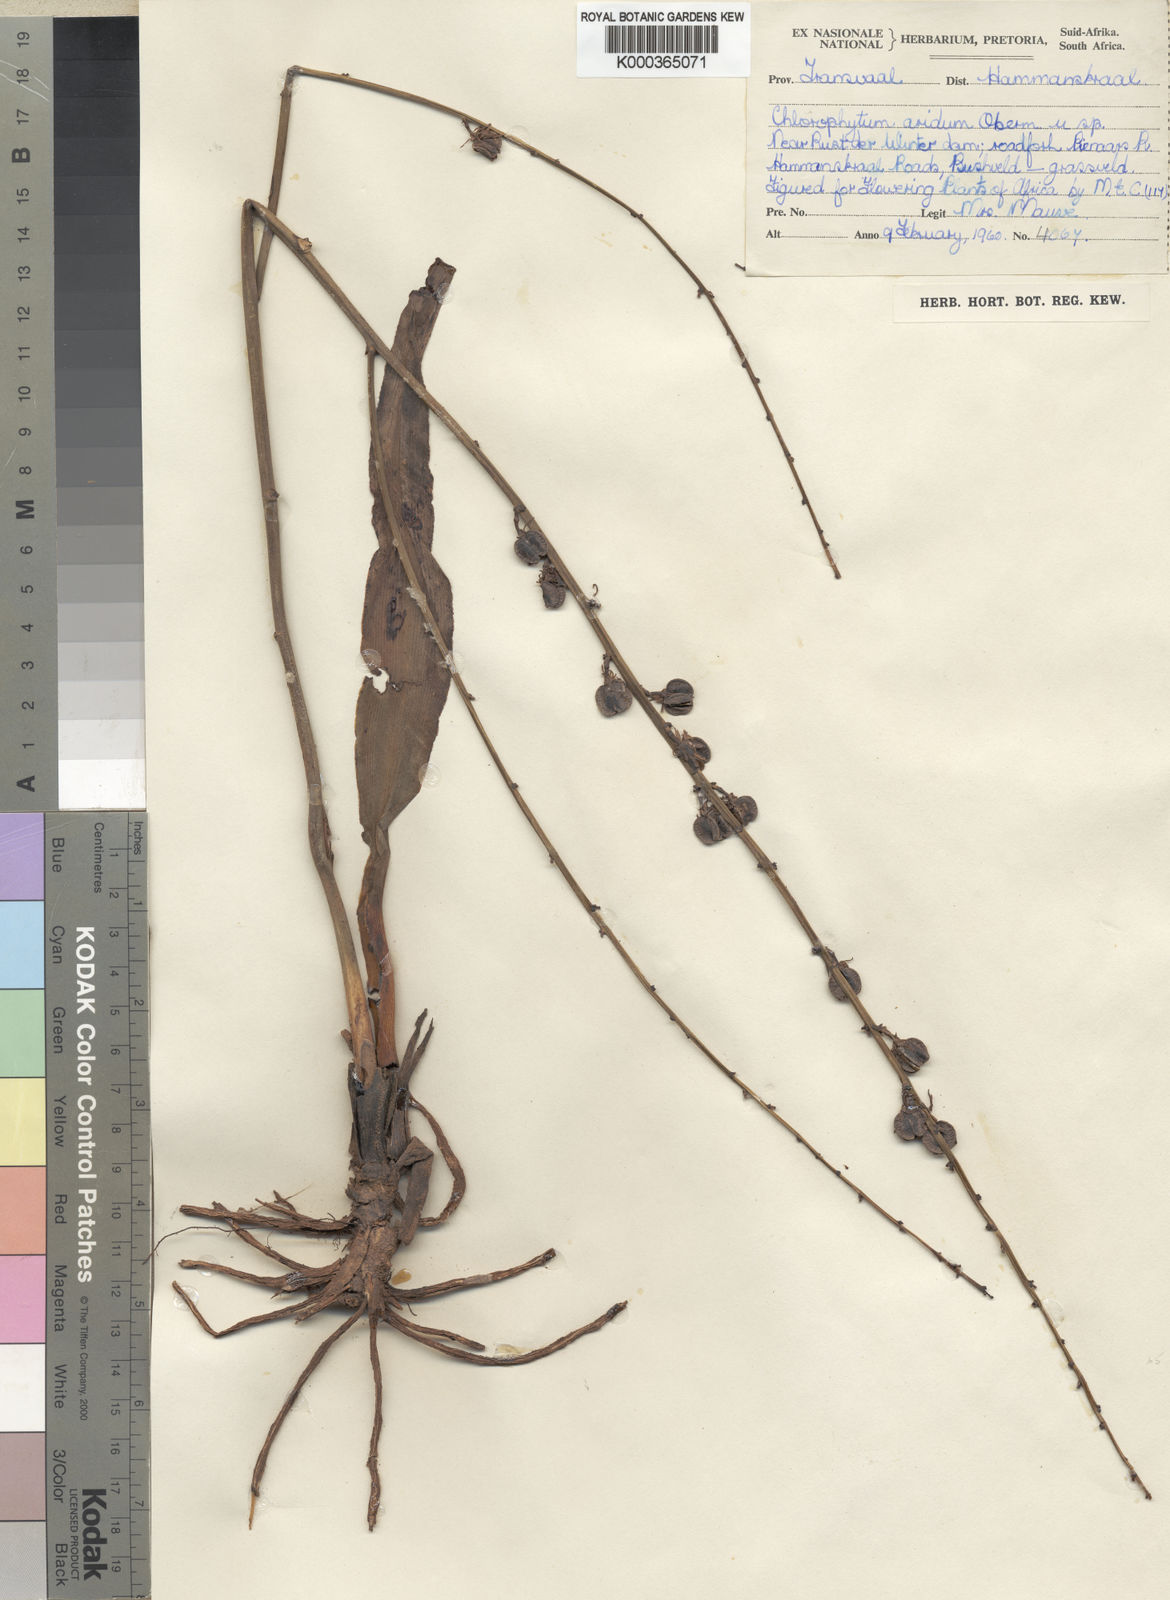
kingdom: Plantae
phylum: Tracheophyta
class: Liliopsida
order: Asparagales
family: Asparagaceae
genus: Chlorophytum
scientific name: Chlorophytum aridum
